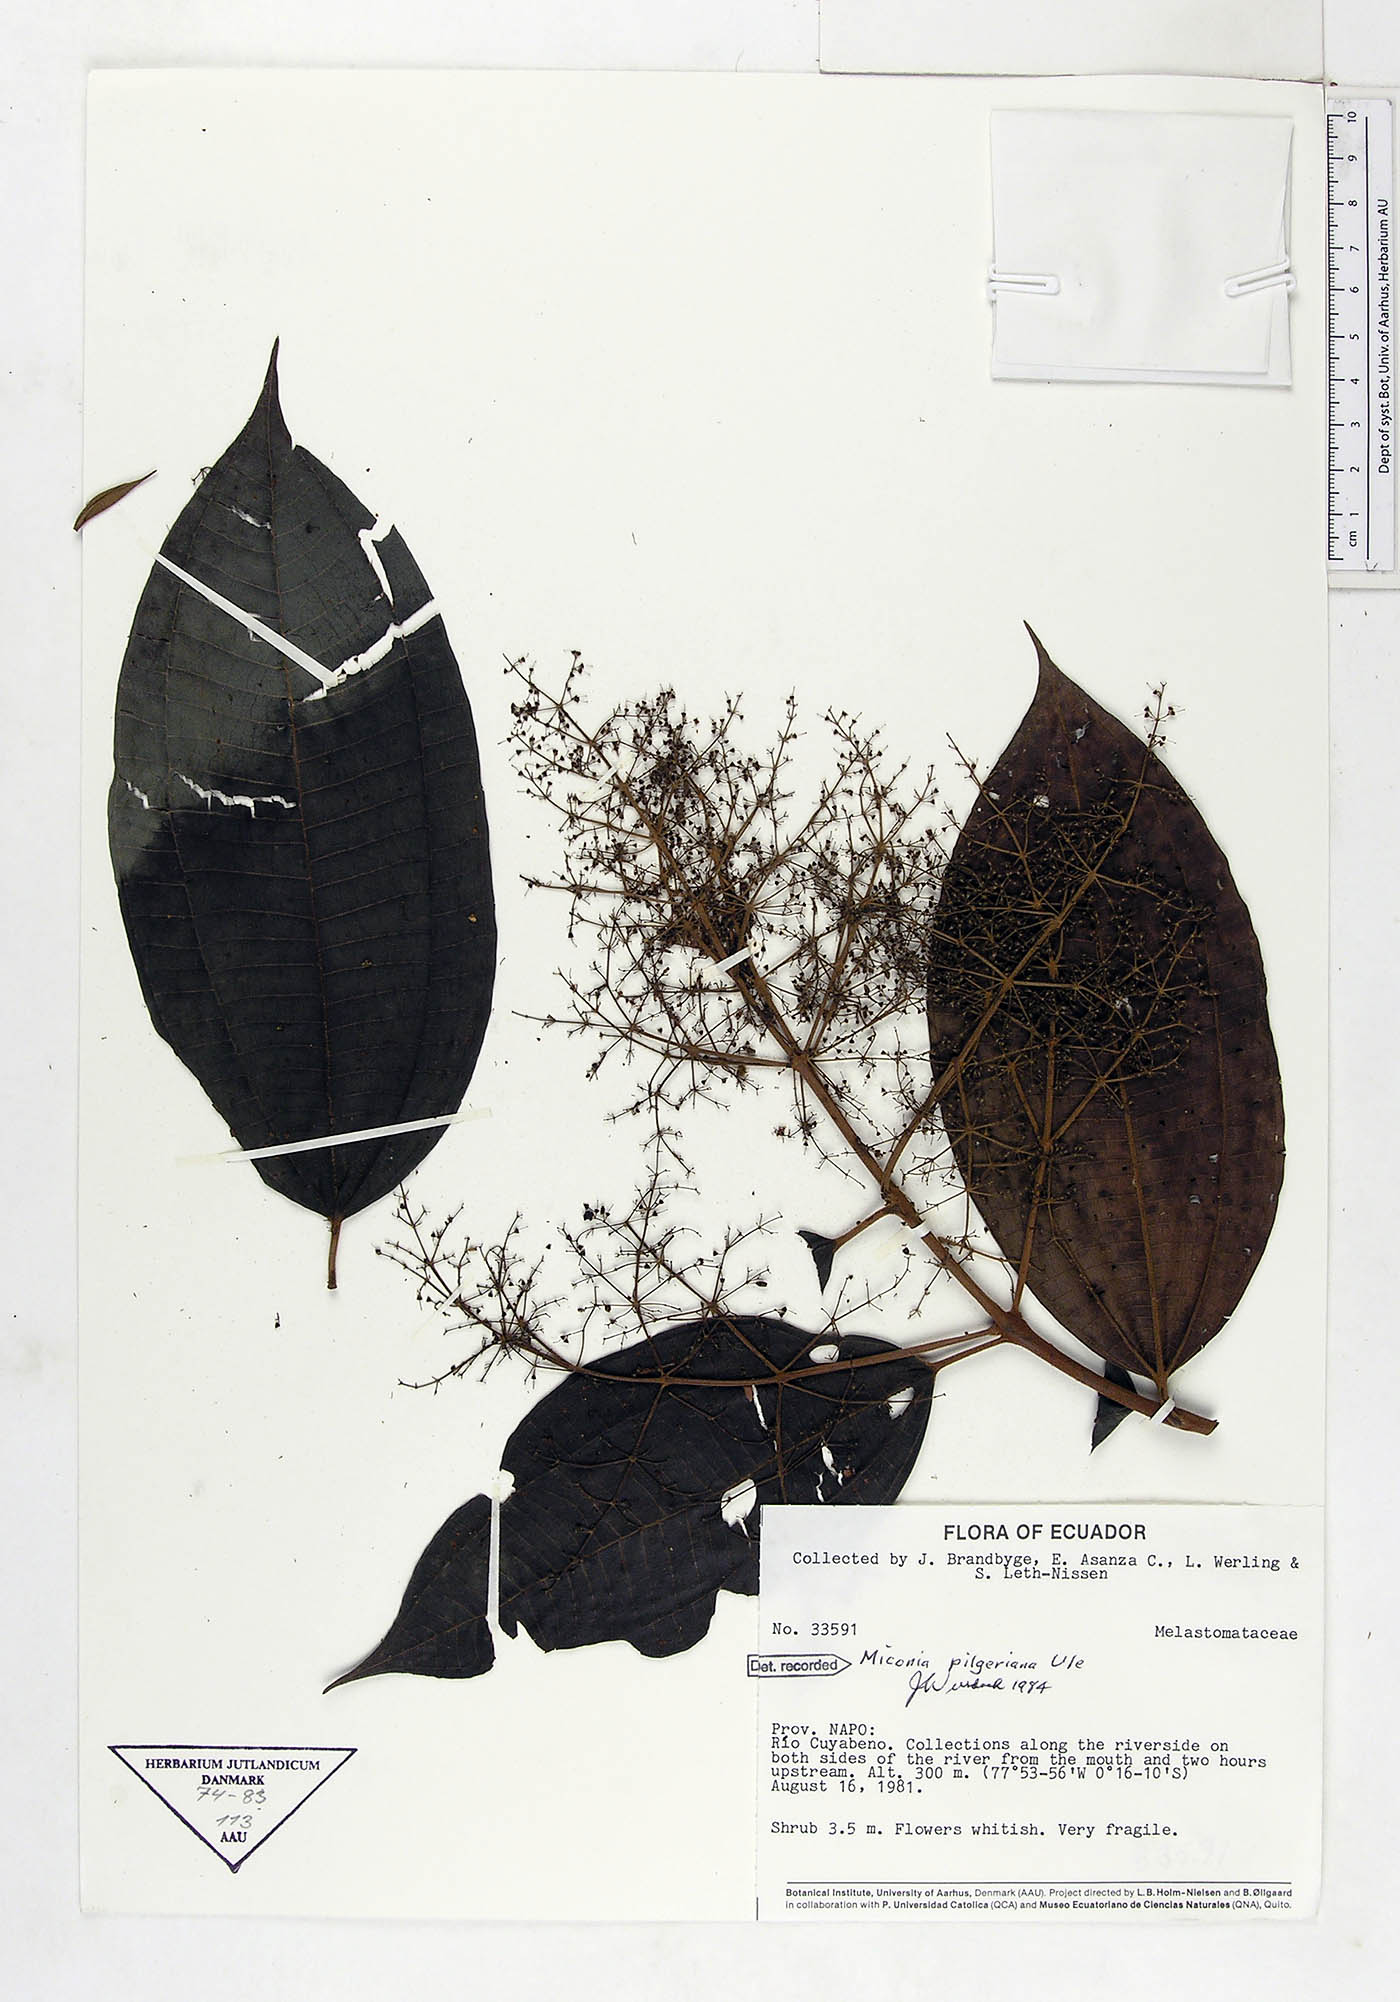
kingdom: Plantae
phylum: Tracheophyta
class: Magnoliopsida
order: Myrtales
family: Melastomataceae
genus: Miconia
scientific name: Miconia dolichorrhyncha
